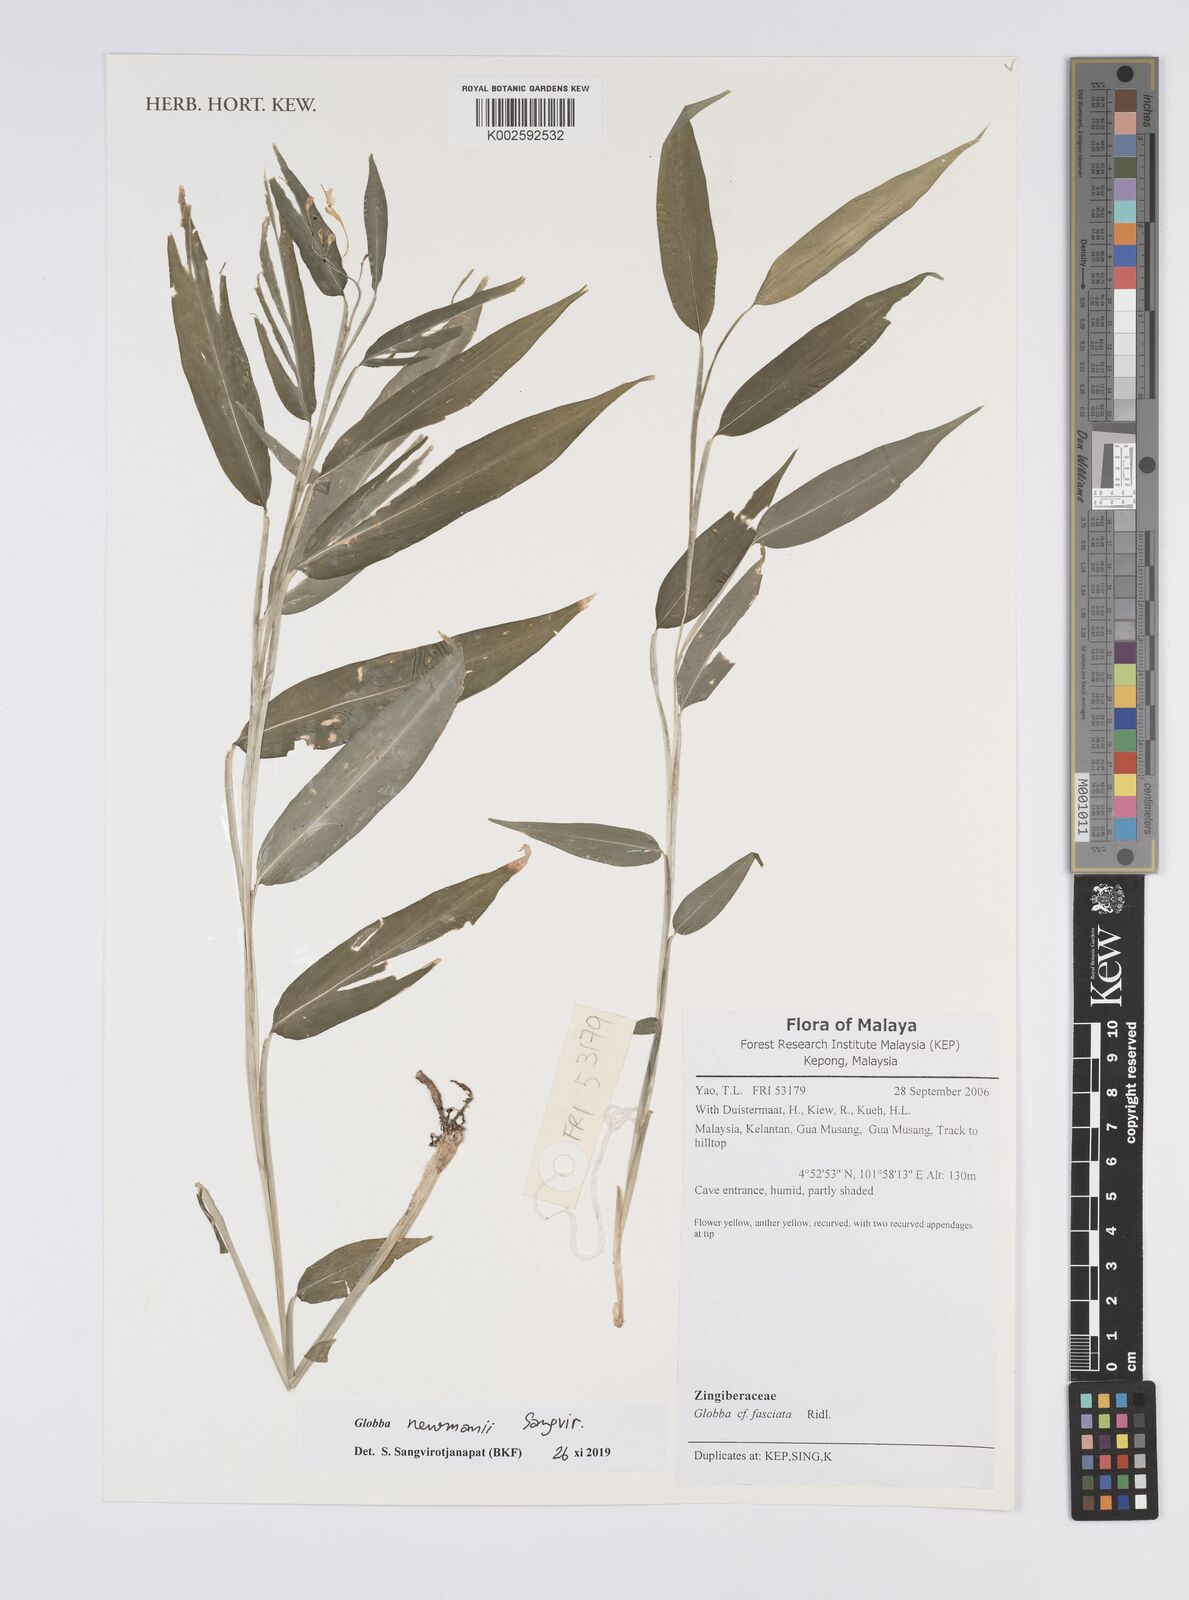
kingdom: Plantae
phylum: Tracheophyta
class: Liliopsida
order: Zingiberales
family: Zingiberaceae
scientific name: Zingiberaceae
